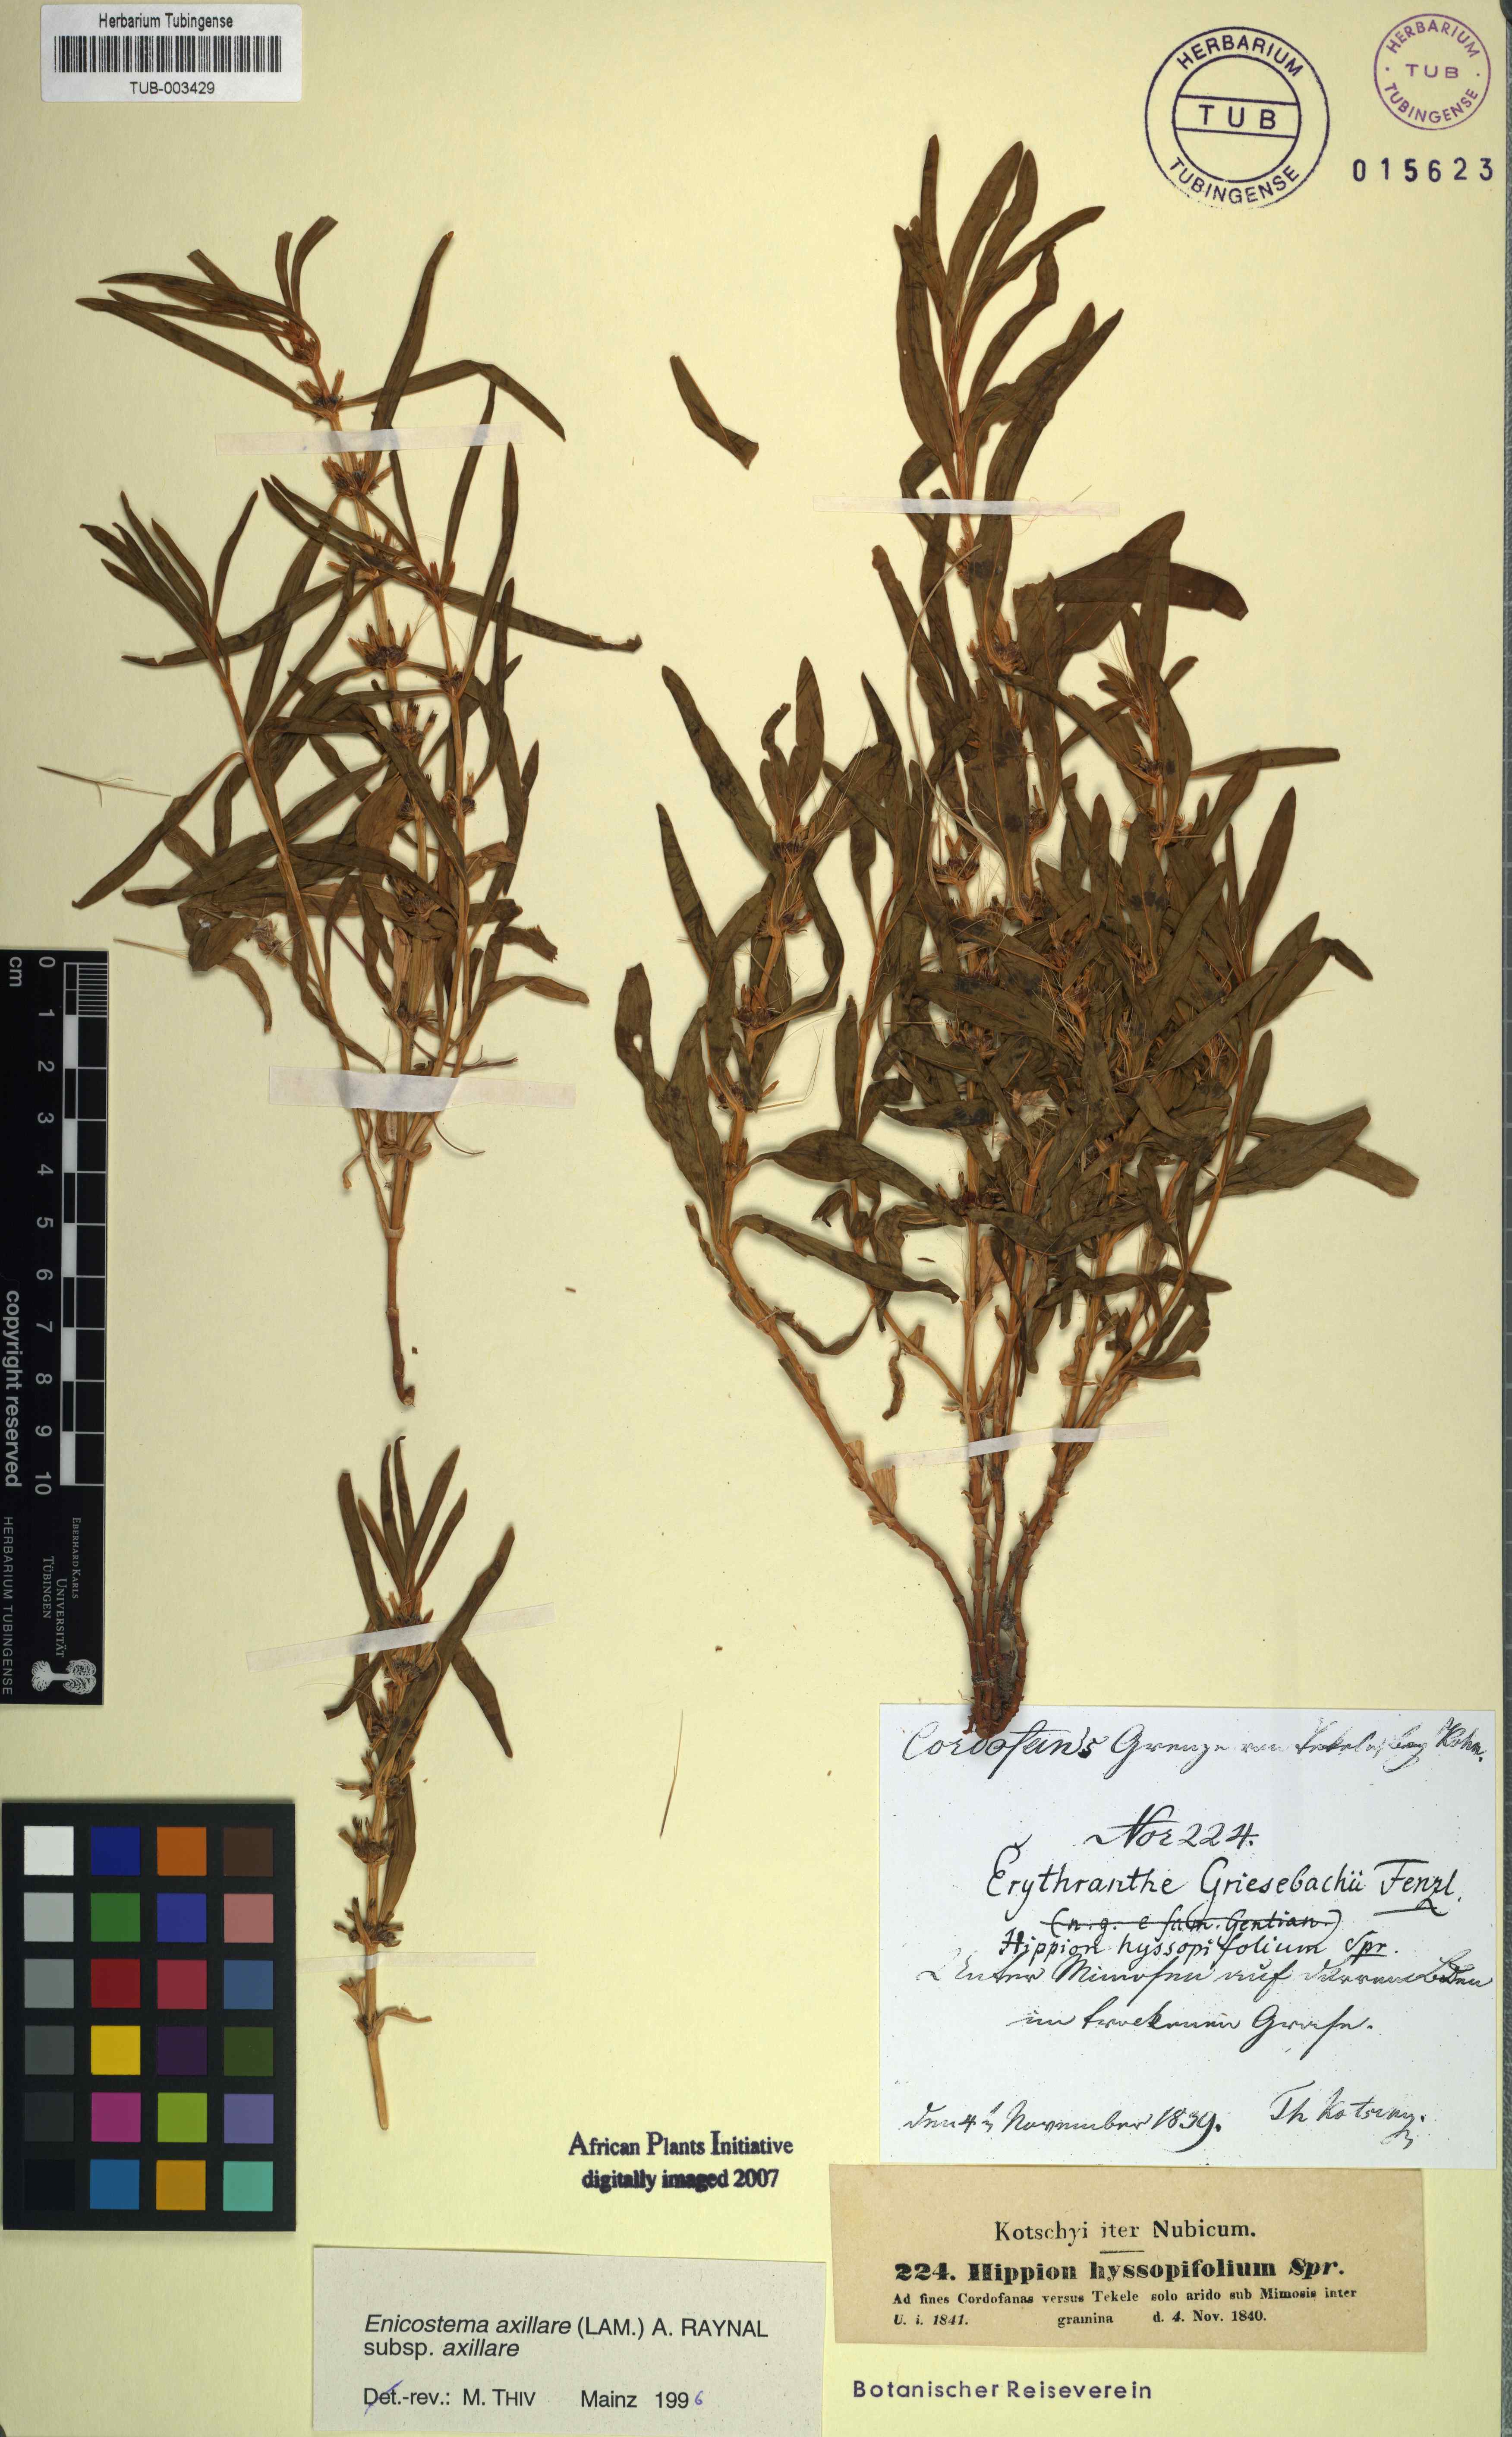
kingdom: Plantae
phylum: Tracheophyta
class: Magnoliopsida
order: Gentianales
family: Gentianaceae
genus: Enicostema
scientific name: Enicostema axillare
